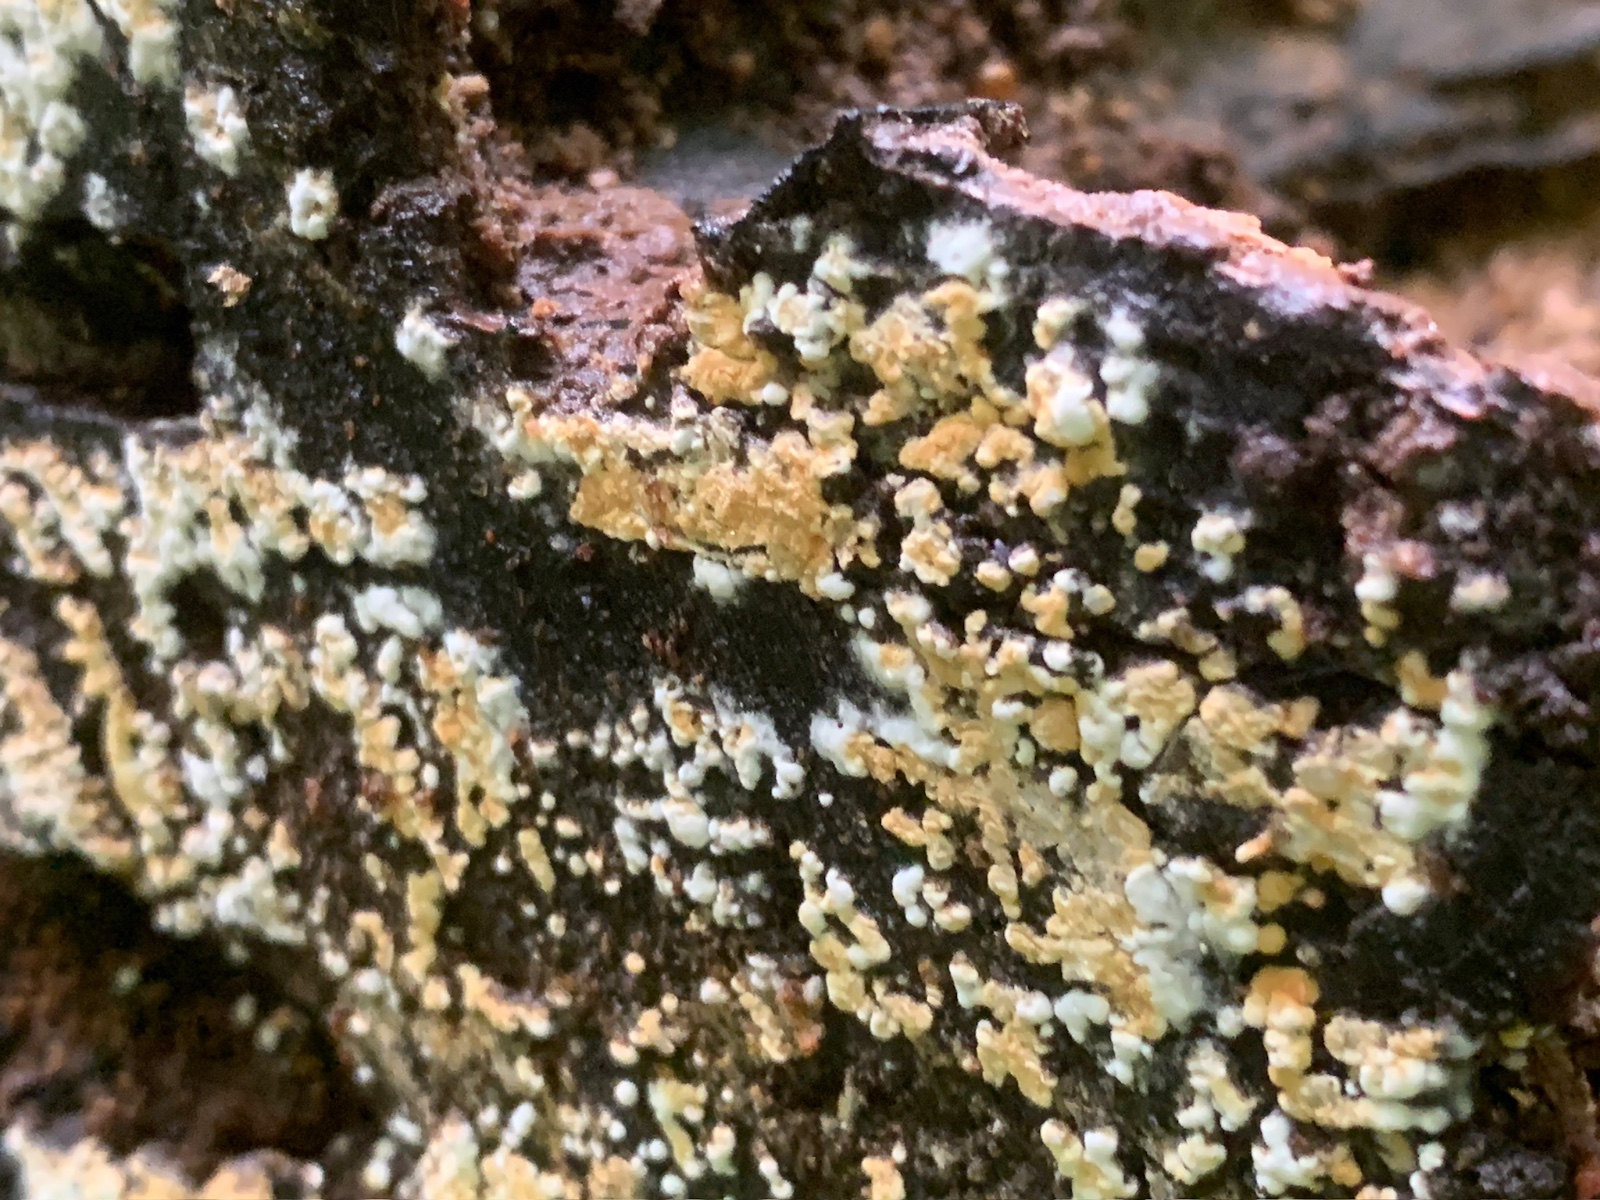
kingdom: Fungi
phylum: Basidiomycota
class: Agaricomycetes
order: Cantharellales
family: Botryobasidiaceae
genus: Botryobasidium
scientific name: Botryobasidium aureum
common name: gylden spindhinde
